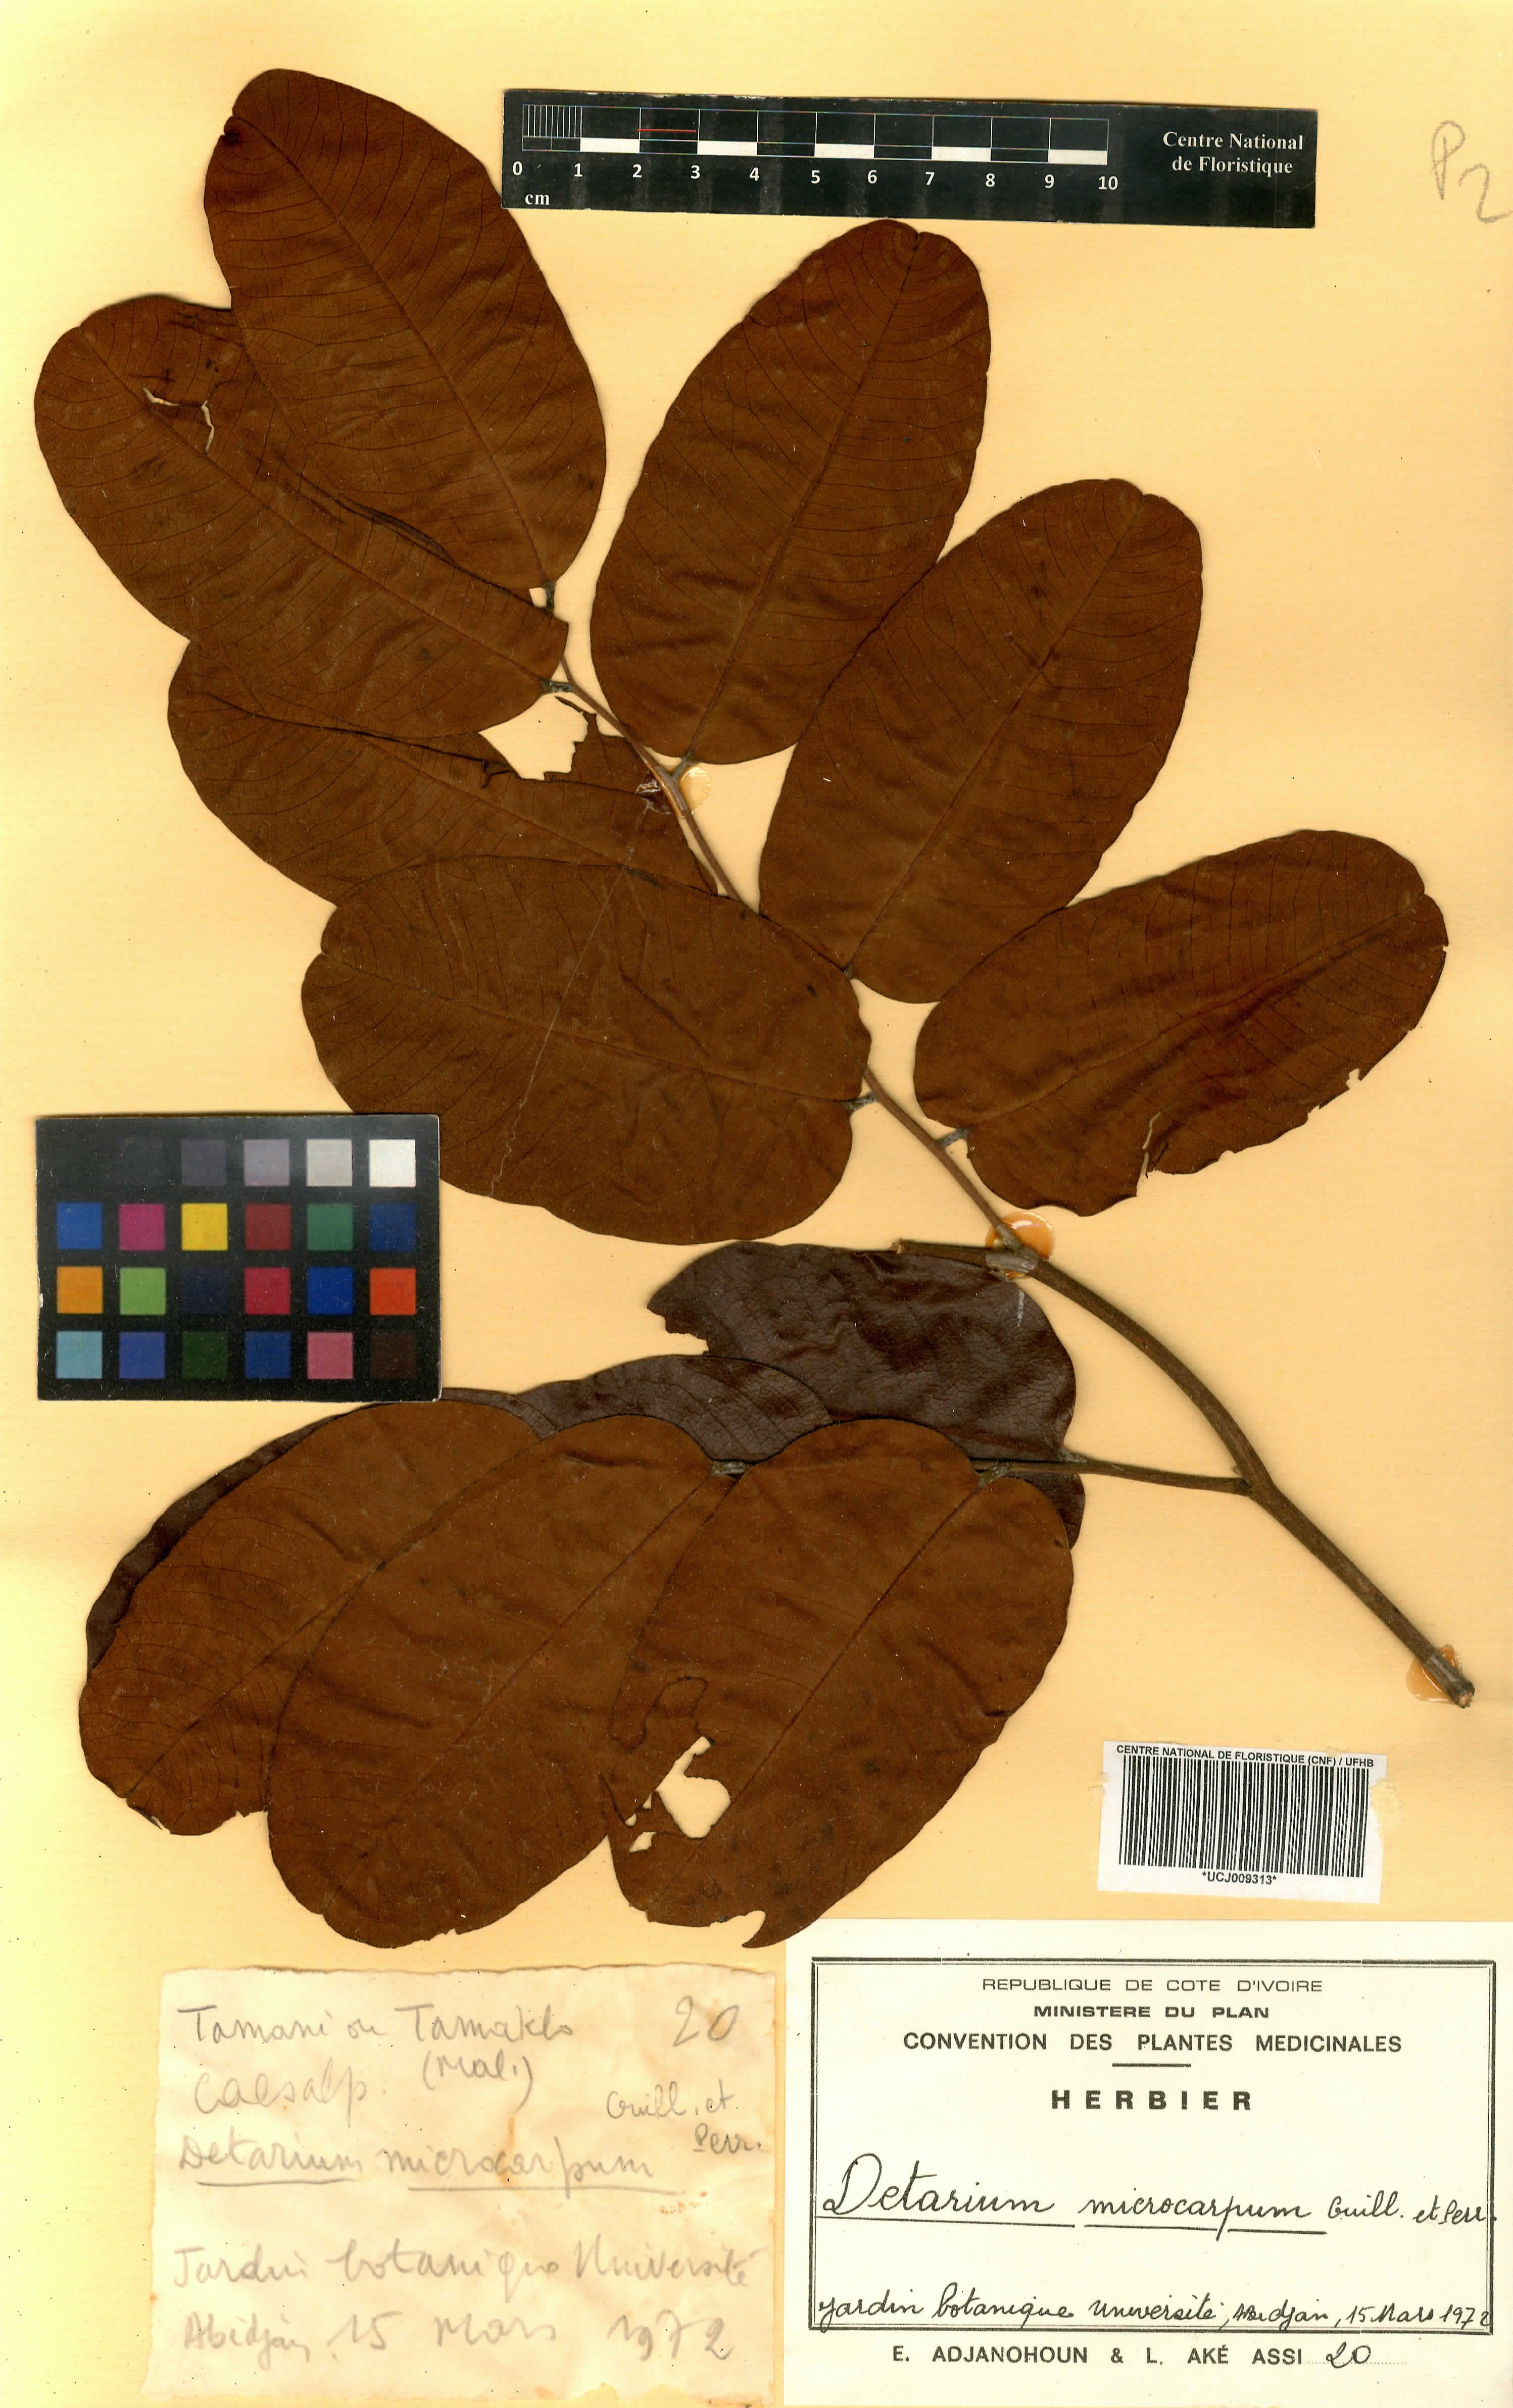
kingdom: Plantae
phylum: Tracheophyta
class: Magnoliopsida
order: Fabales
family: Fabaceae
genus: Detarium
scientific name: Detarium microcarpum
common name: Sweet dattock
